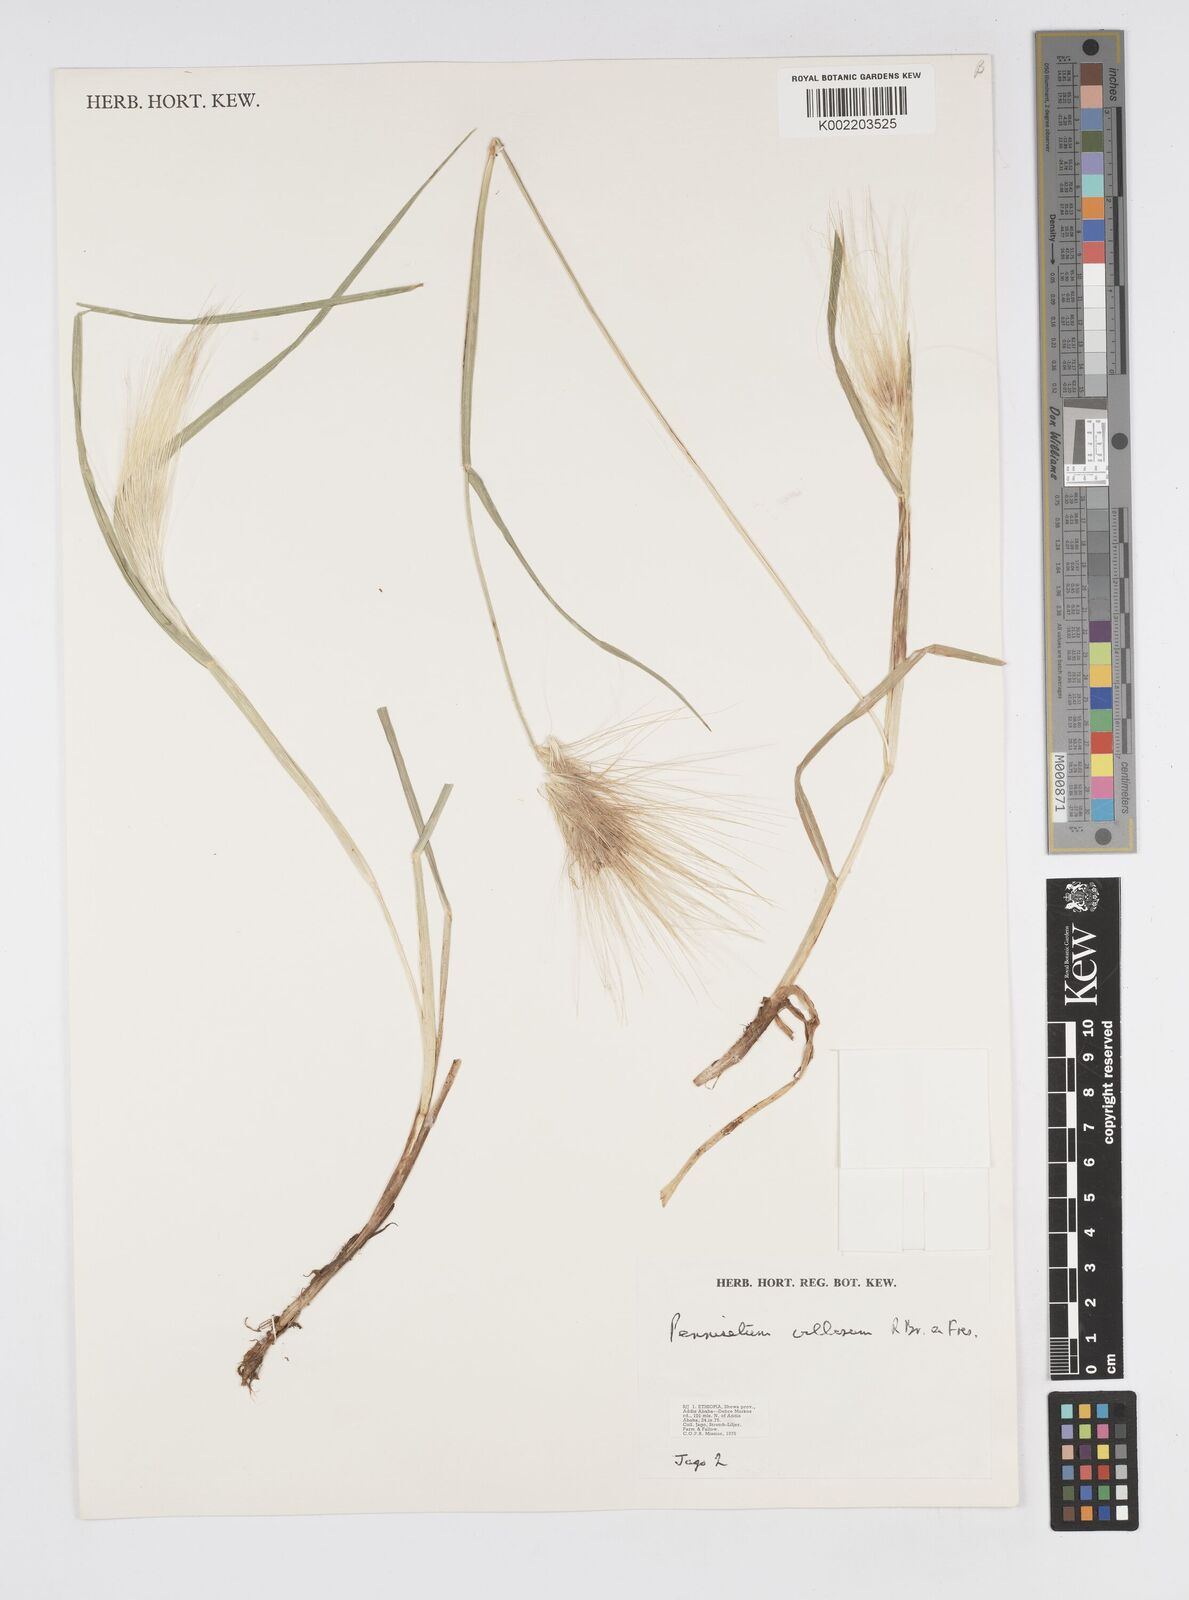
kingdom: Plantae
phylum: Tracheophyta
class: Liliopsida
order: Poales
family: Poaceae
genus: Cenchrus
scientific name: Cenchrus longisetus
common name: Feathertop
